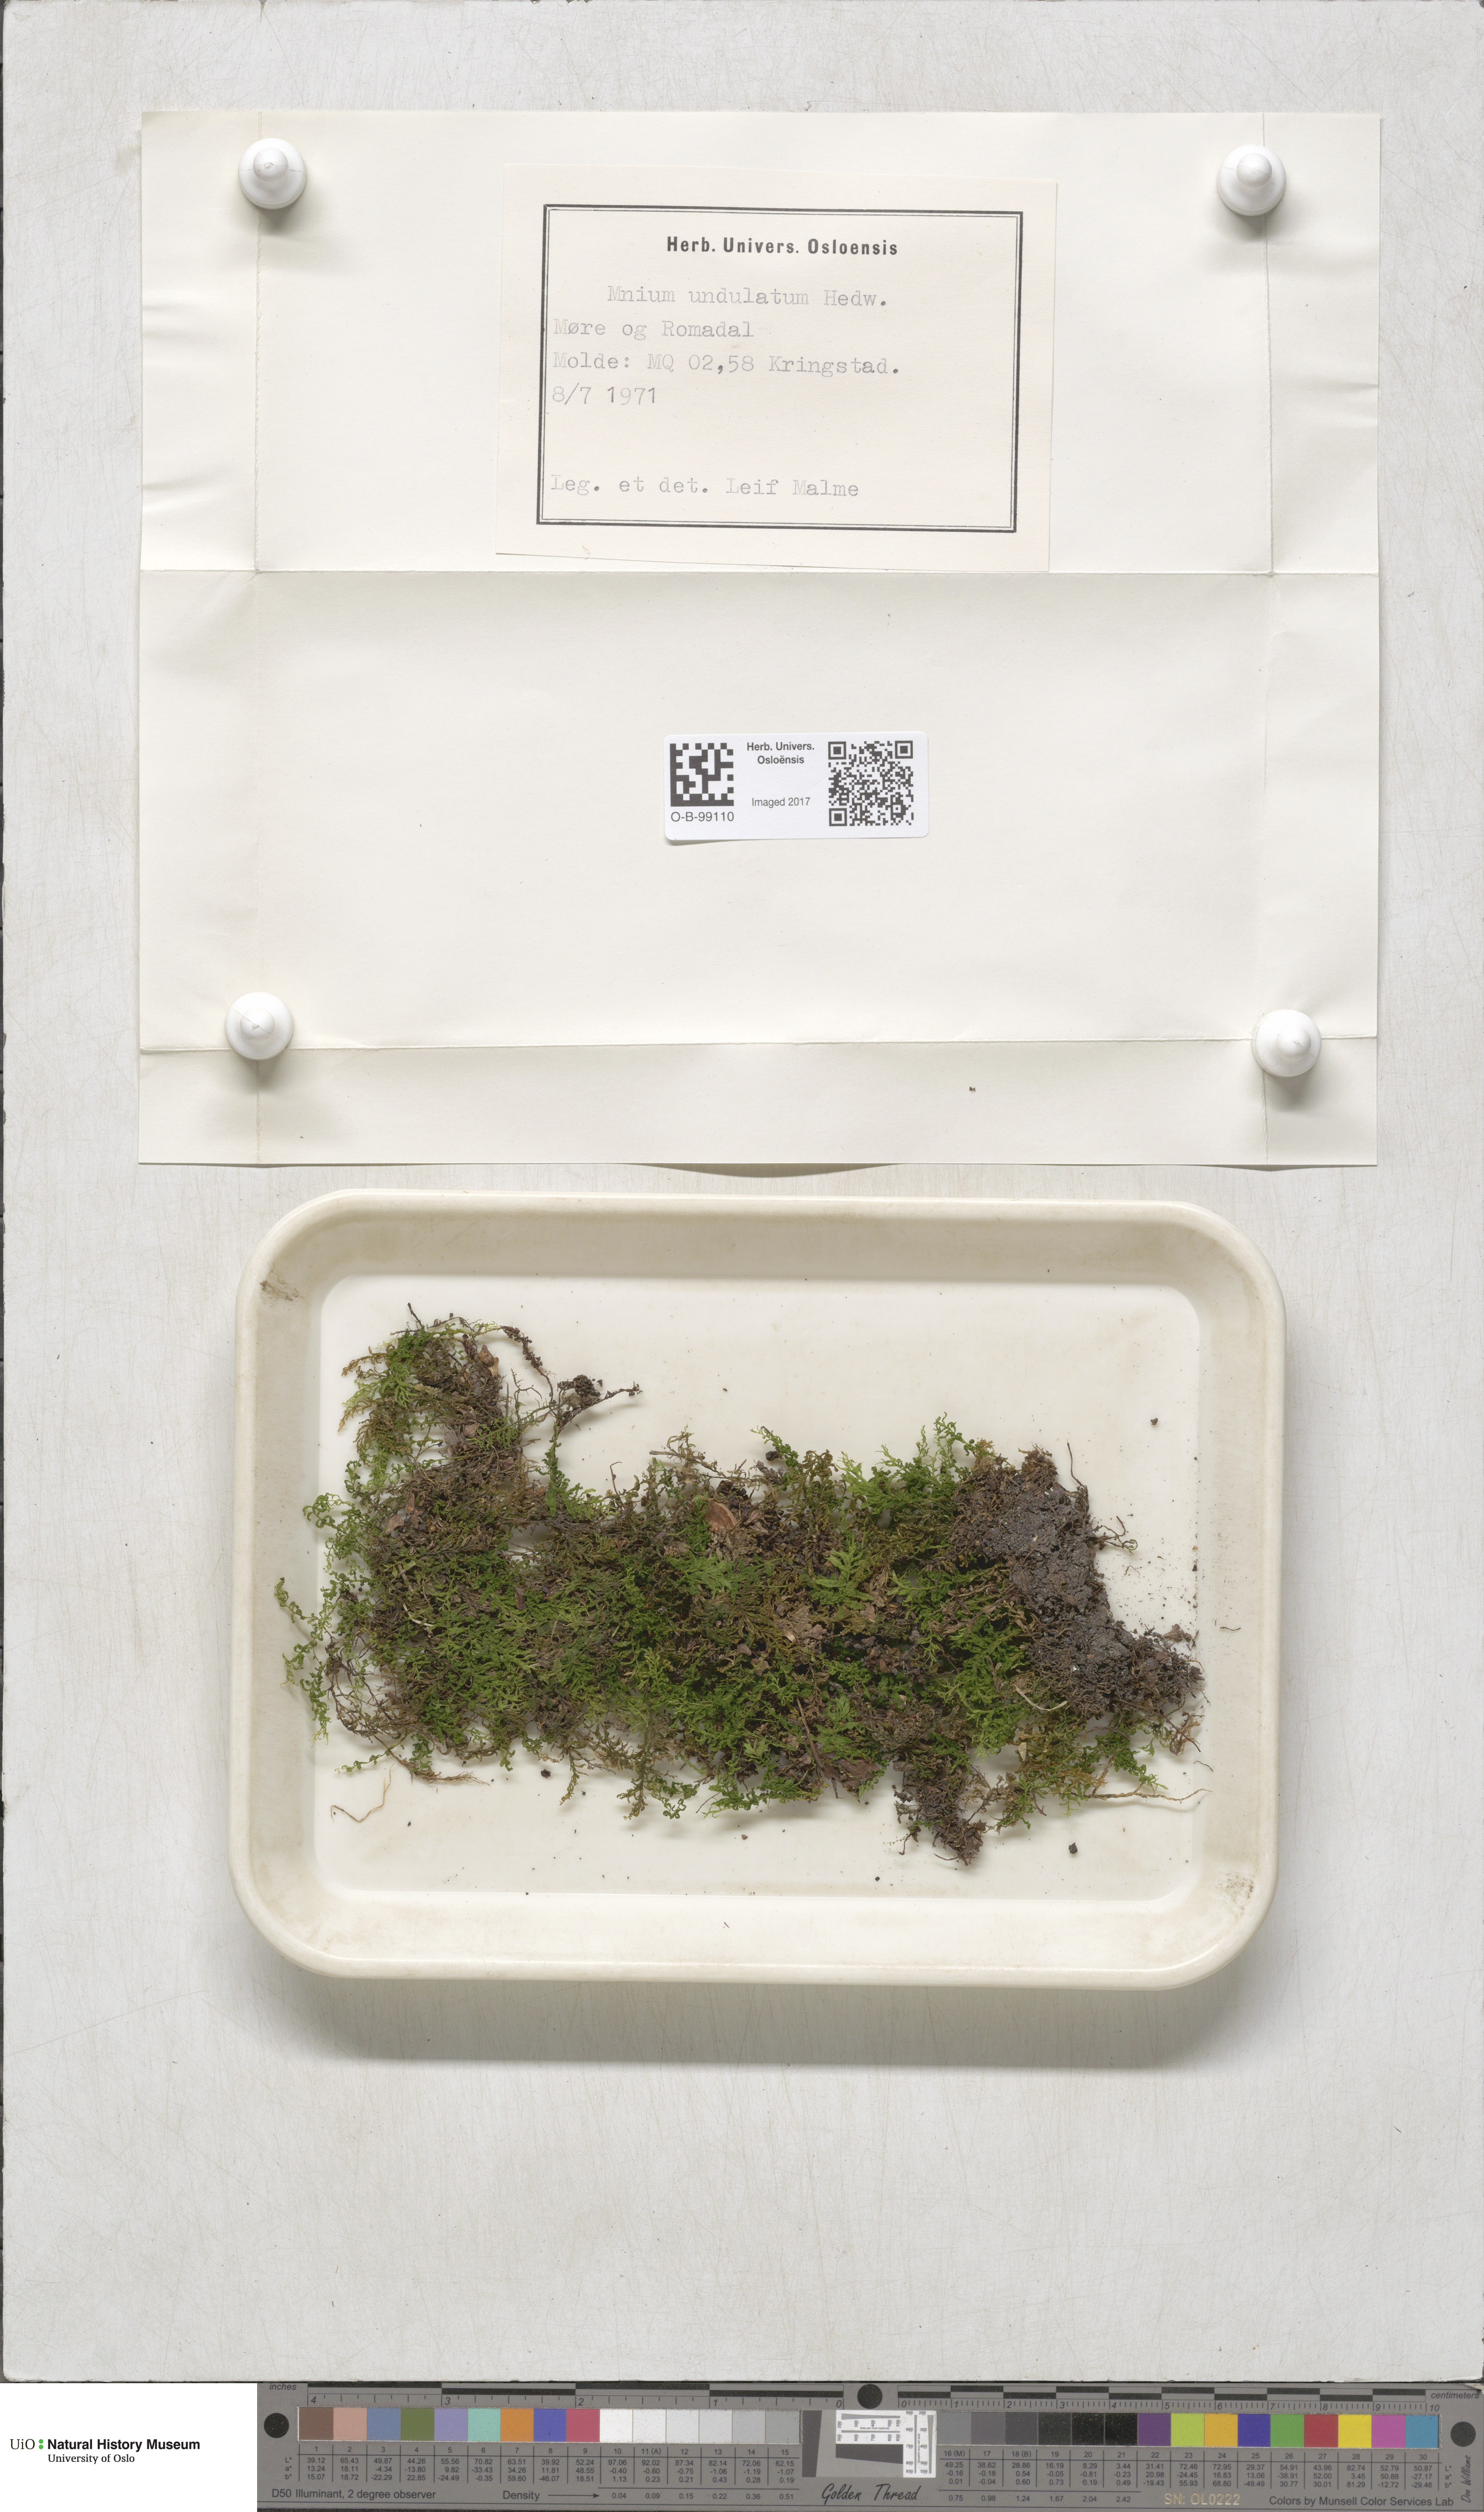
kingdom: Plantae
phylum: Bryophyta
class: Bryopsida
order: Bryales
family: Mniaceae
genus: Plagiomnium
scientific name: Plagiomnium undulatum
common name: Hart's-tongue thyme-moss
